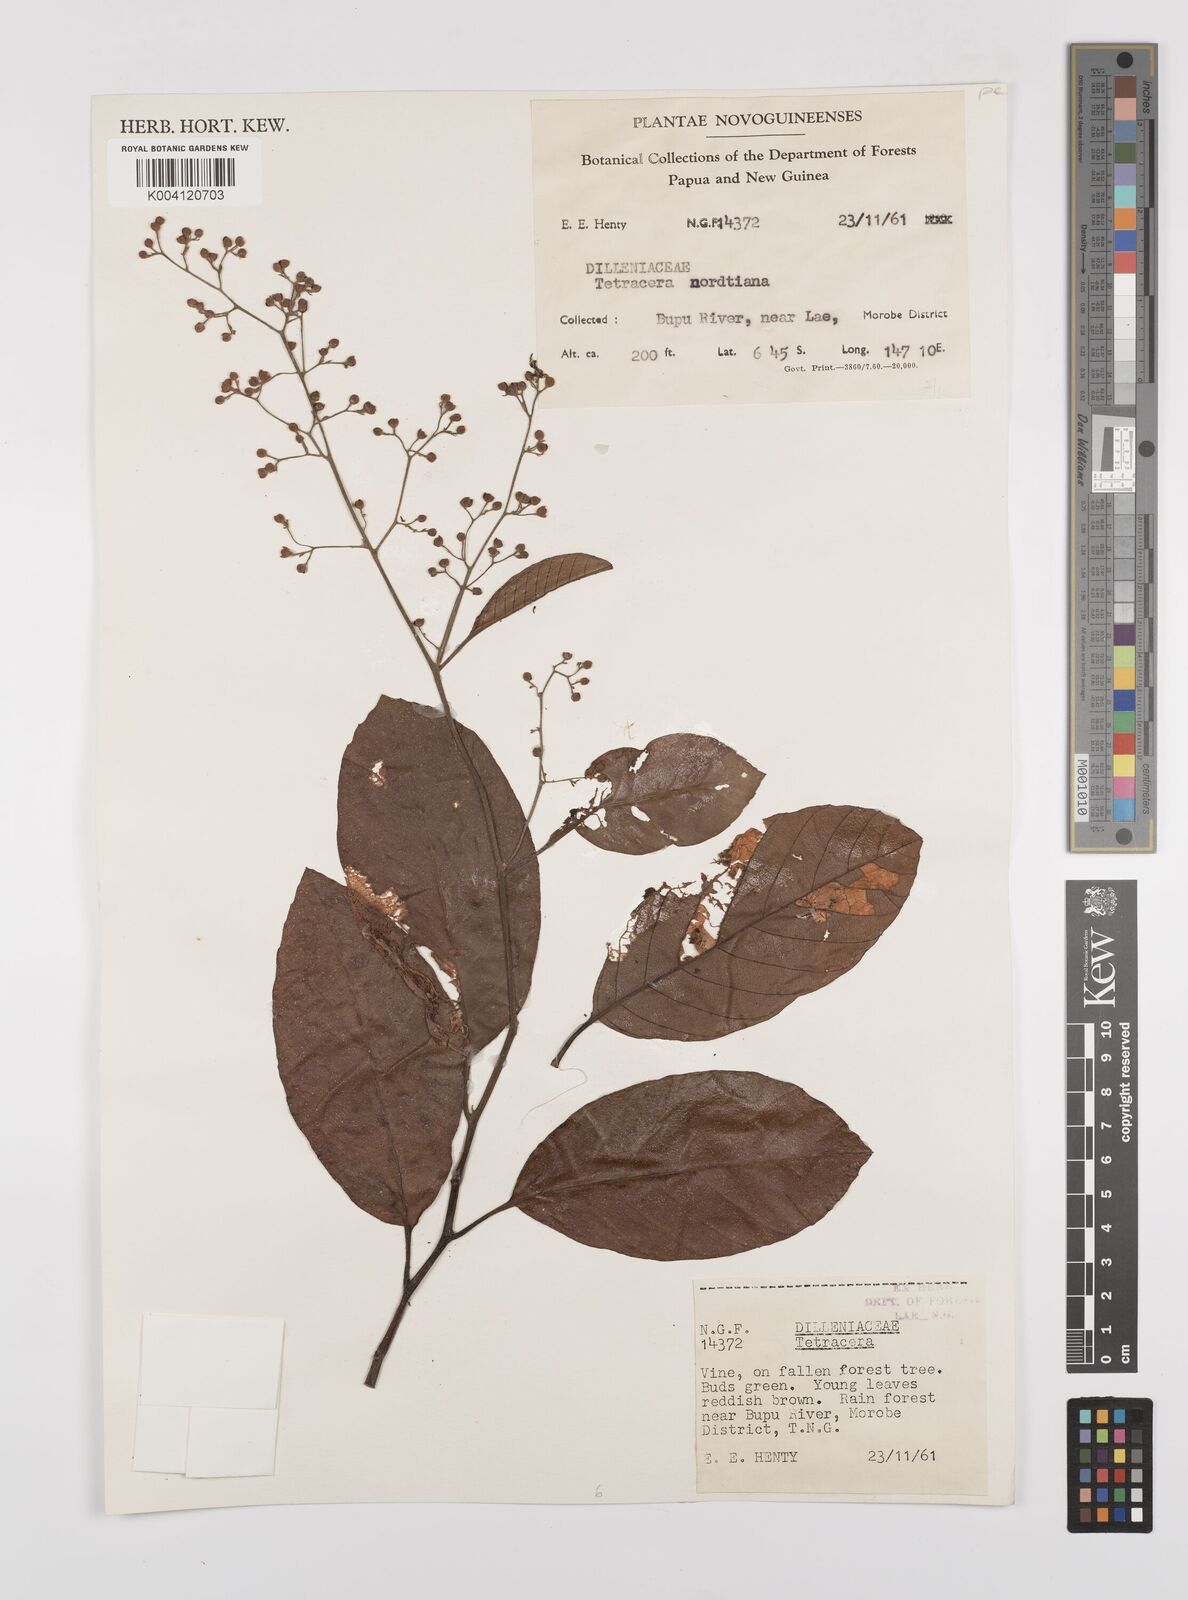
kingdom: Plantae
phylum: Tracheophyta
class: Magnoliopsida
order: Dilleniales
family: Dilleniaceae
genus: Tetracera
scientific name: Tetracera nordtiana
